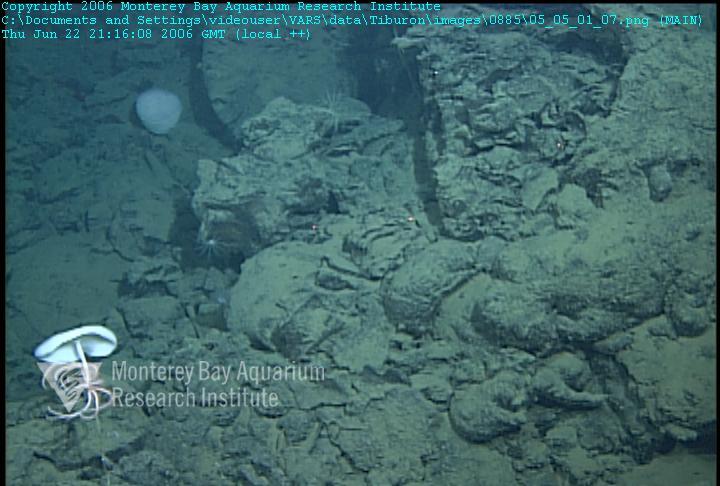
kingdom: Animalia
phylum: Porifera
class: Hexactinellida
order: Lyssacinosida
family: Rossellidae
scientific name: Rossellidae
